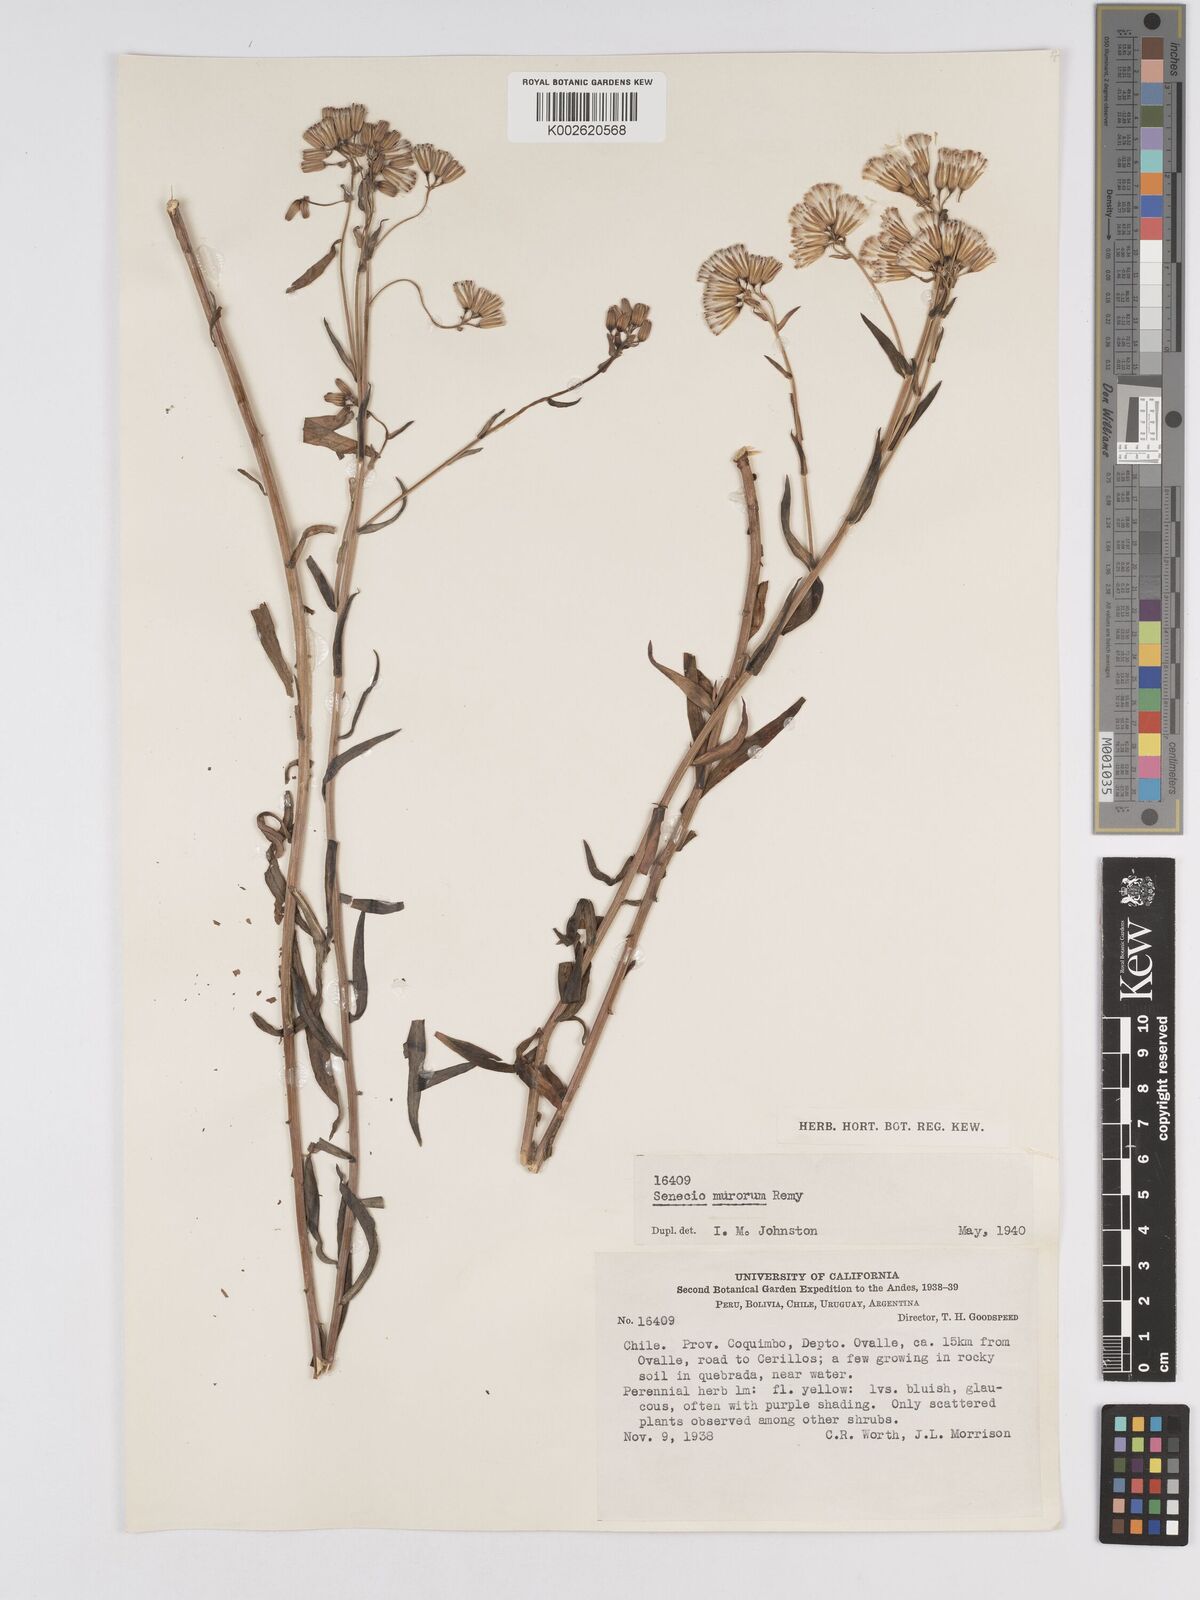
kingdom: Plantae
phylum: Tracheophyta
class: Magnoliopsida
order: Asterales
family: Asteraceae
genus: Senecio
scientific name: Senecio murorum
